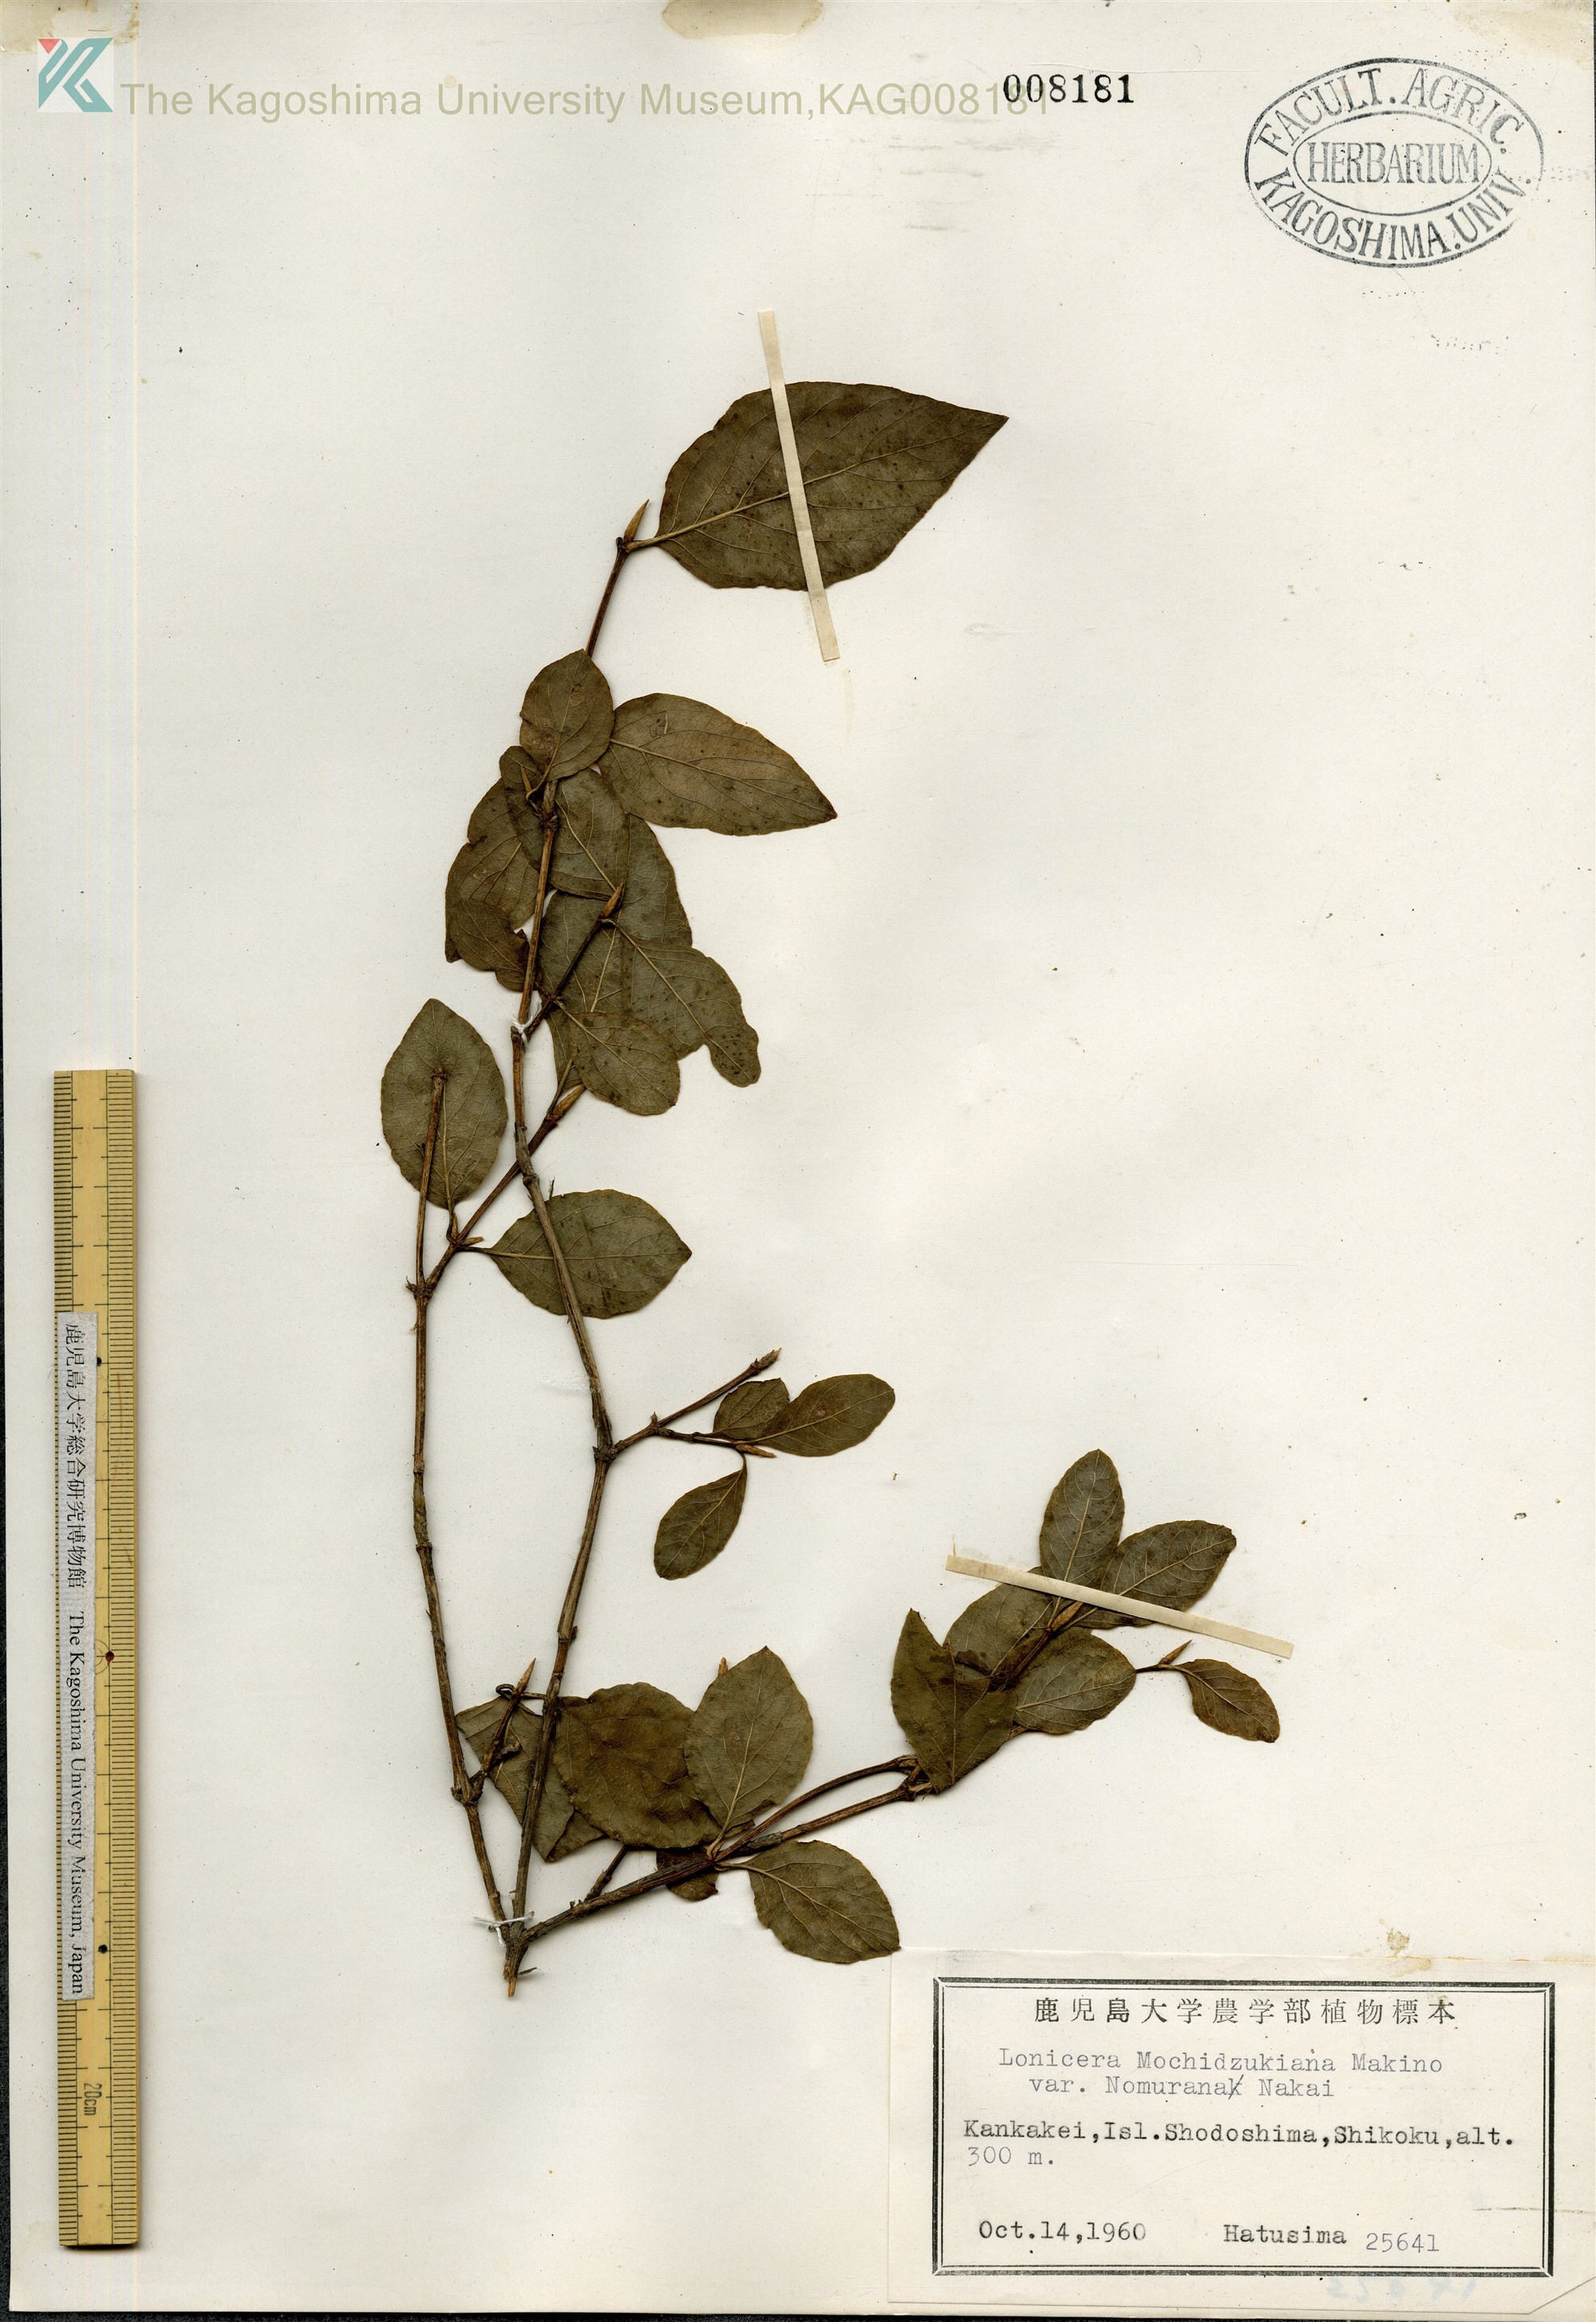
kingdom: Plantae
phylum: Tracheophyta
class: Magnoliopsida
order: Dipsacales
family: Caprifoliaceae
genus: Lonicera
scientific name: Lonicera subhispida
